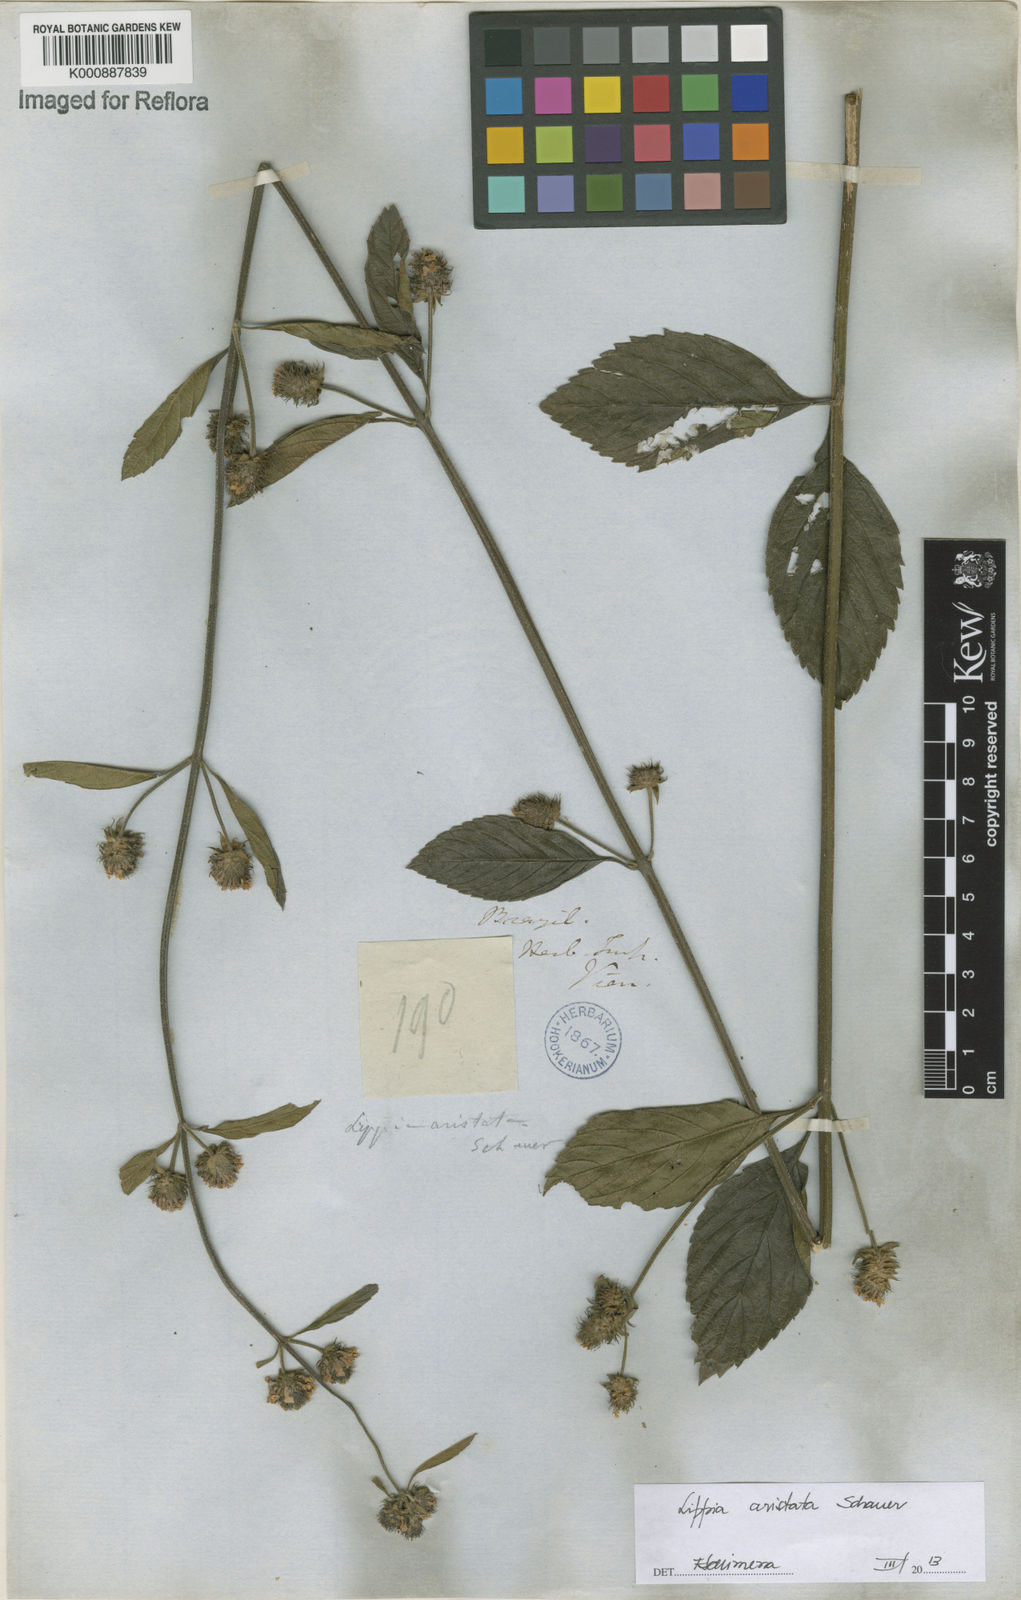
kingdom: Plantae
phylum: Tracheophyta
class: Magnoliopsida
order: Lamiales
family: Verbenaceae
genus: Lippia
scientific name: Lippia aristata
